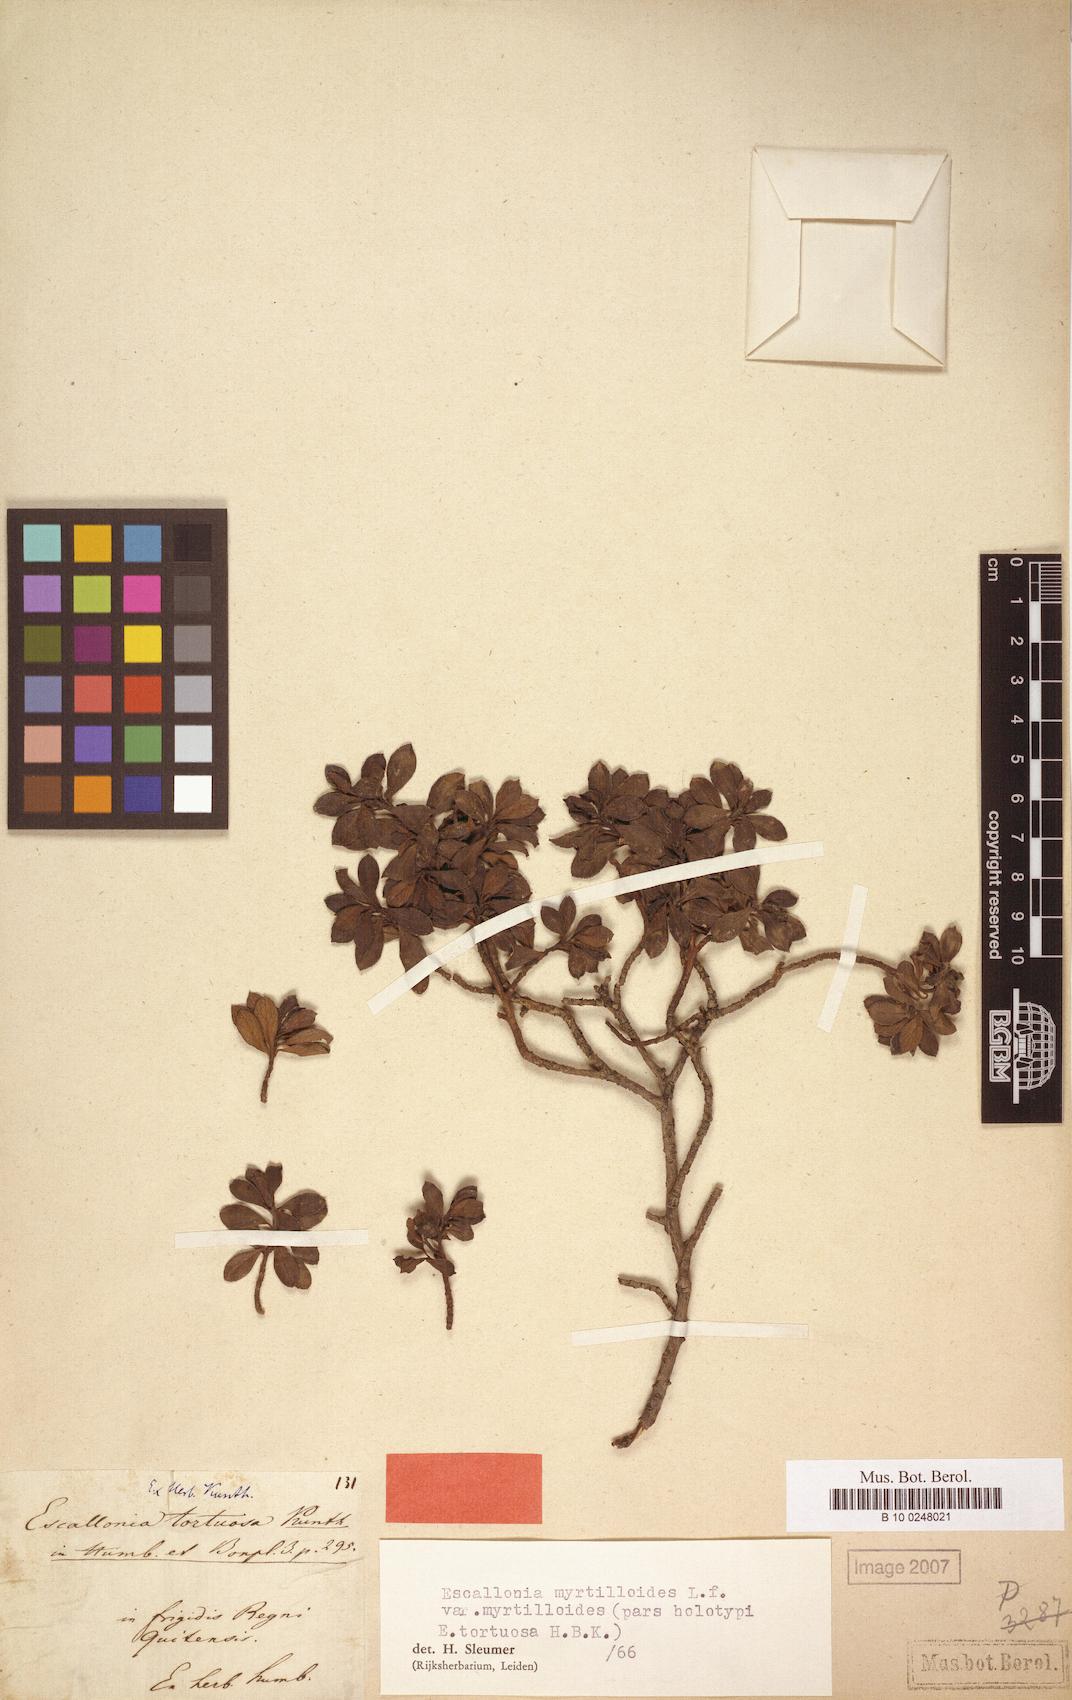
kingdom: Plantae
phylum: Tracheophyta
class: Magnoliopsida
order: Escalloniales
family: Escalloniaceae
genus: Escallonia
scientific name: Escallonia myrtilloides
